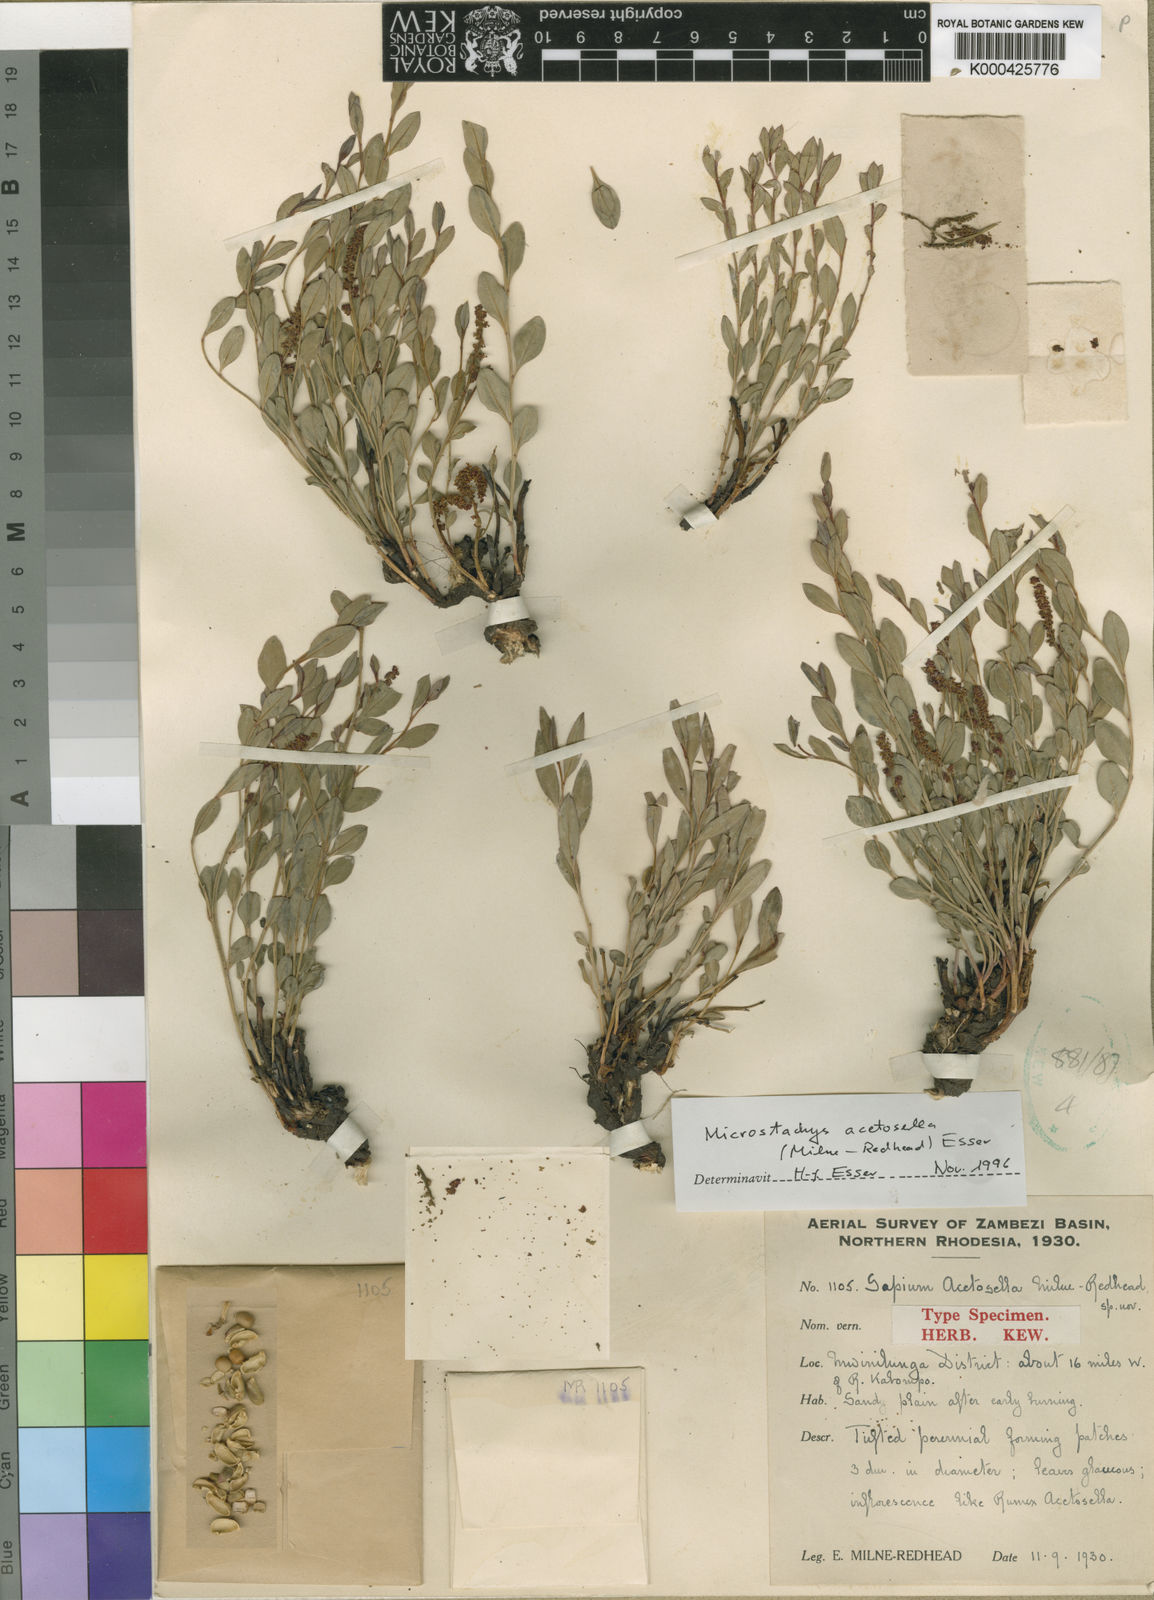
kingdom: Plantae
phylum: Tracheophyta
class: Magnoliopsida
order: Malpighiales
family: Euphorbiaceae
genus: Microstachys
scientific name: Microstachys acetosella
